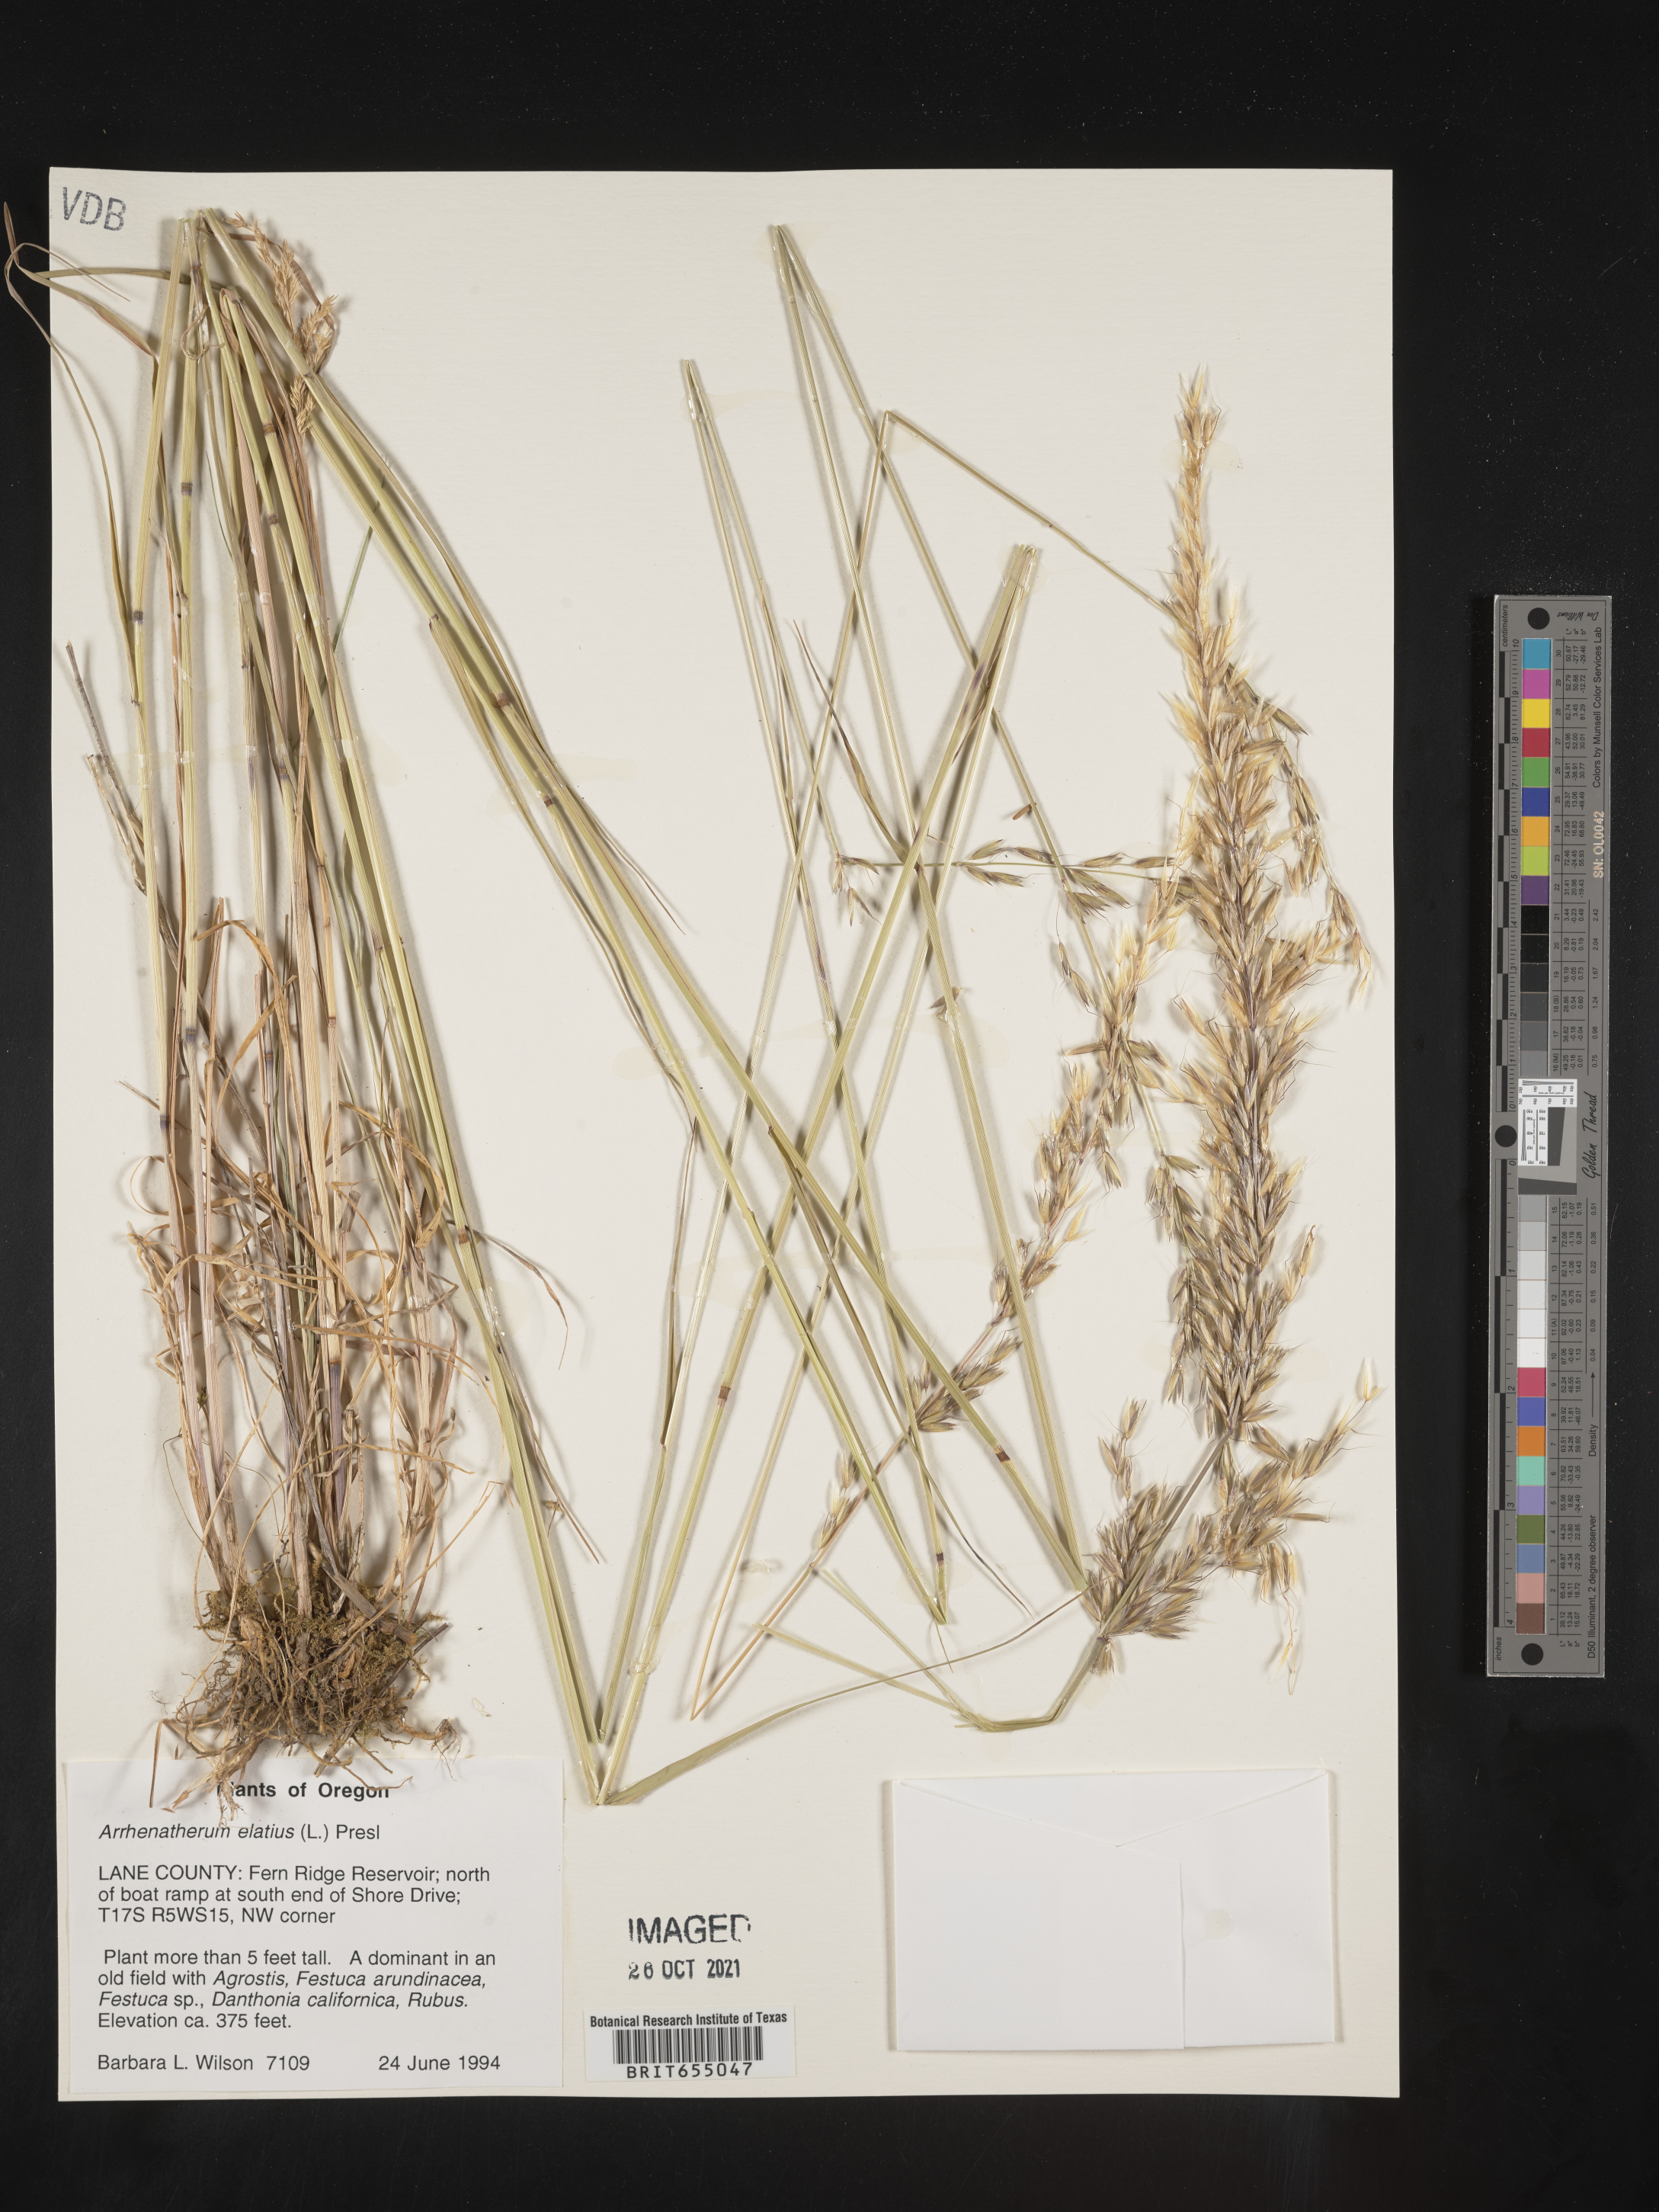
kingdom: Plantae
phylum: Tracheophyta
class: Liliopsida
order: Poales
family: Poaceae
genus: Arrhenatherum
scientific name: Arrhenatherum
